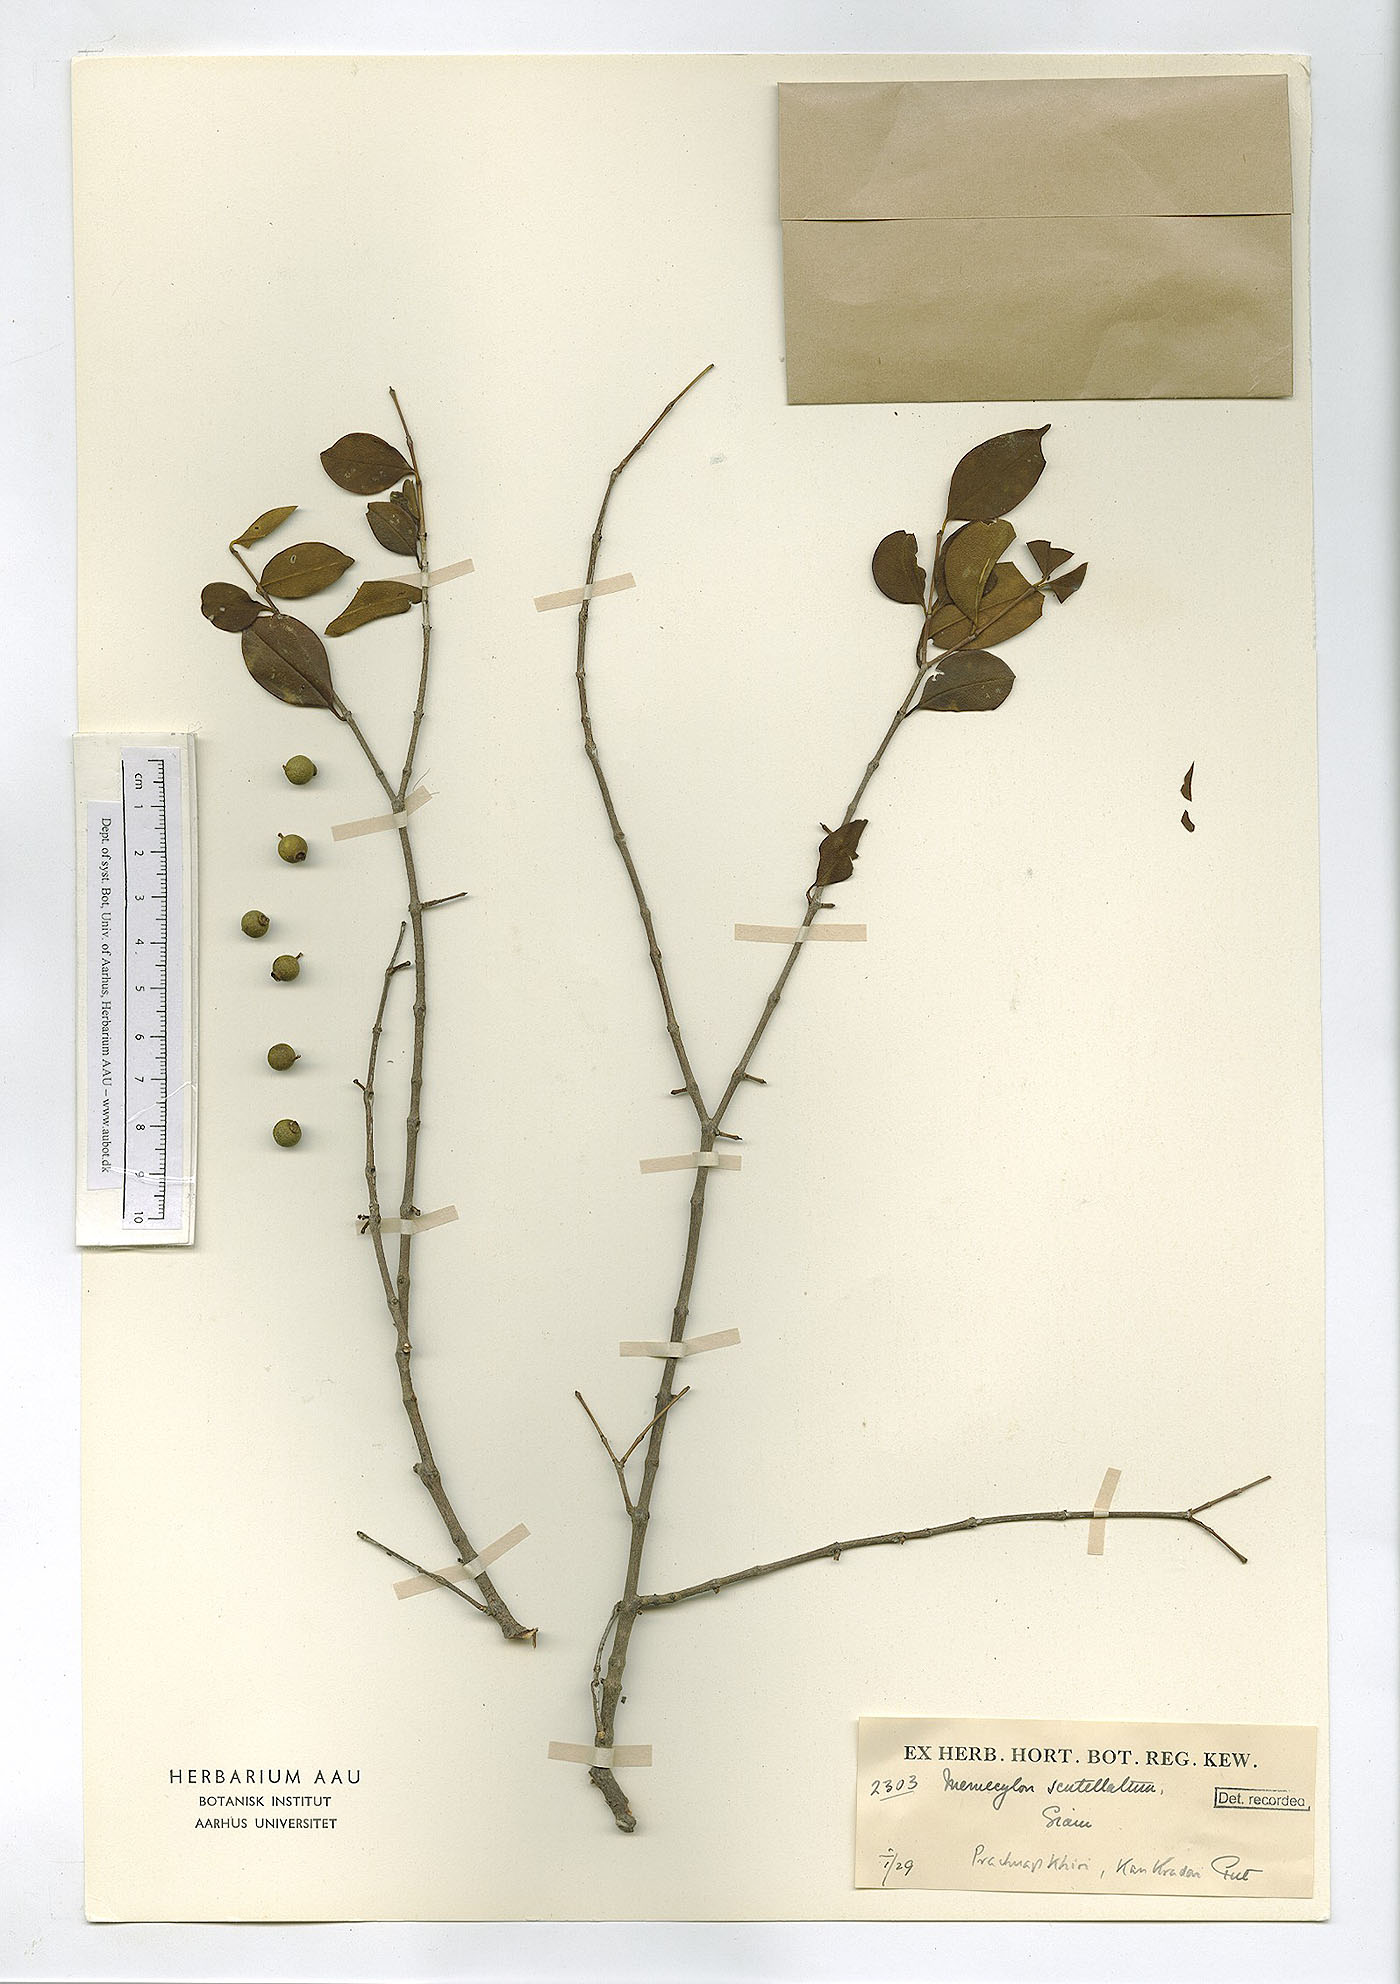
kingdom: Plantae
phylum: Tracheophyta
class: Magnoliopsida
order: Myrtales
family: Melastomataceae
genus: Memecylon
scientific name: Memecylon scutellatum
